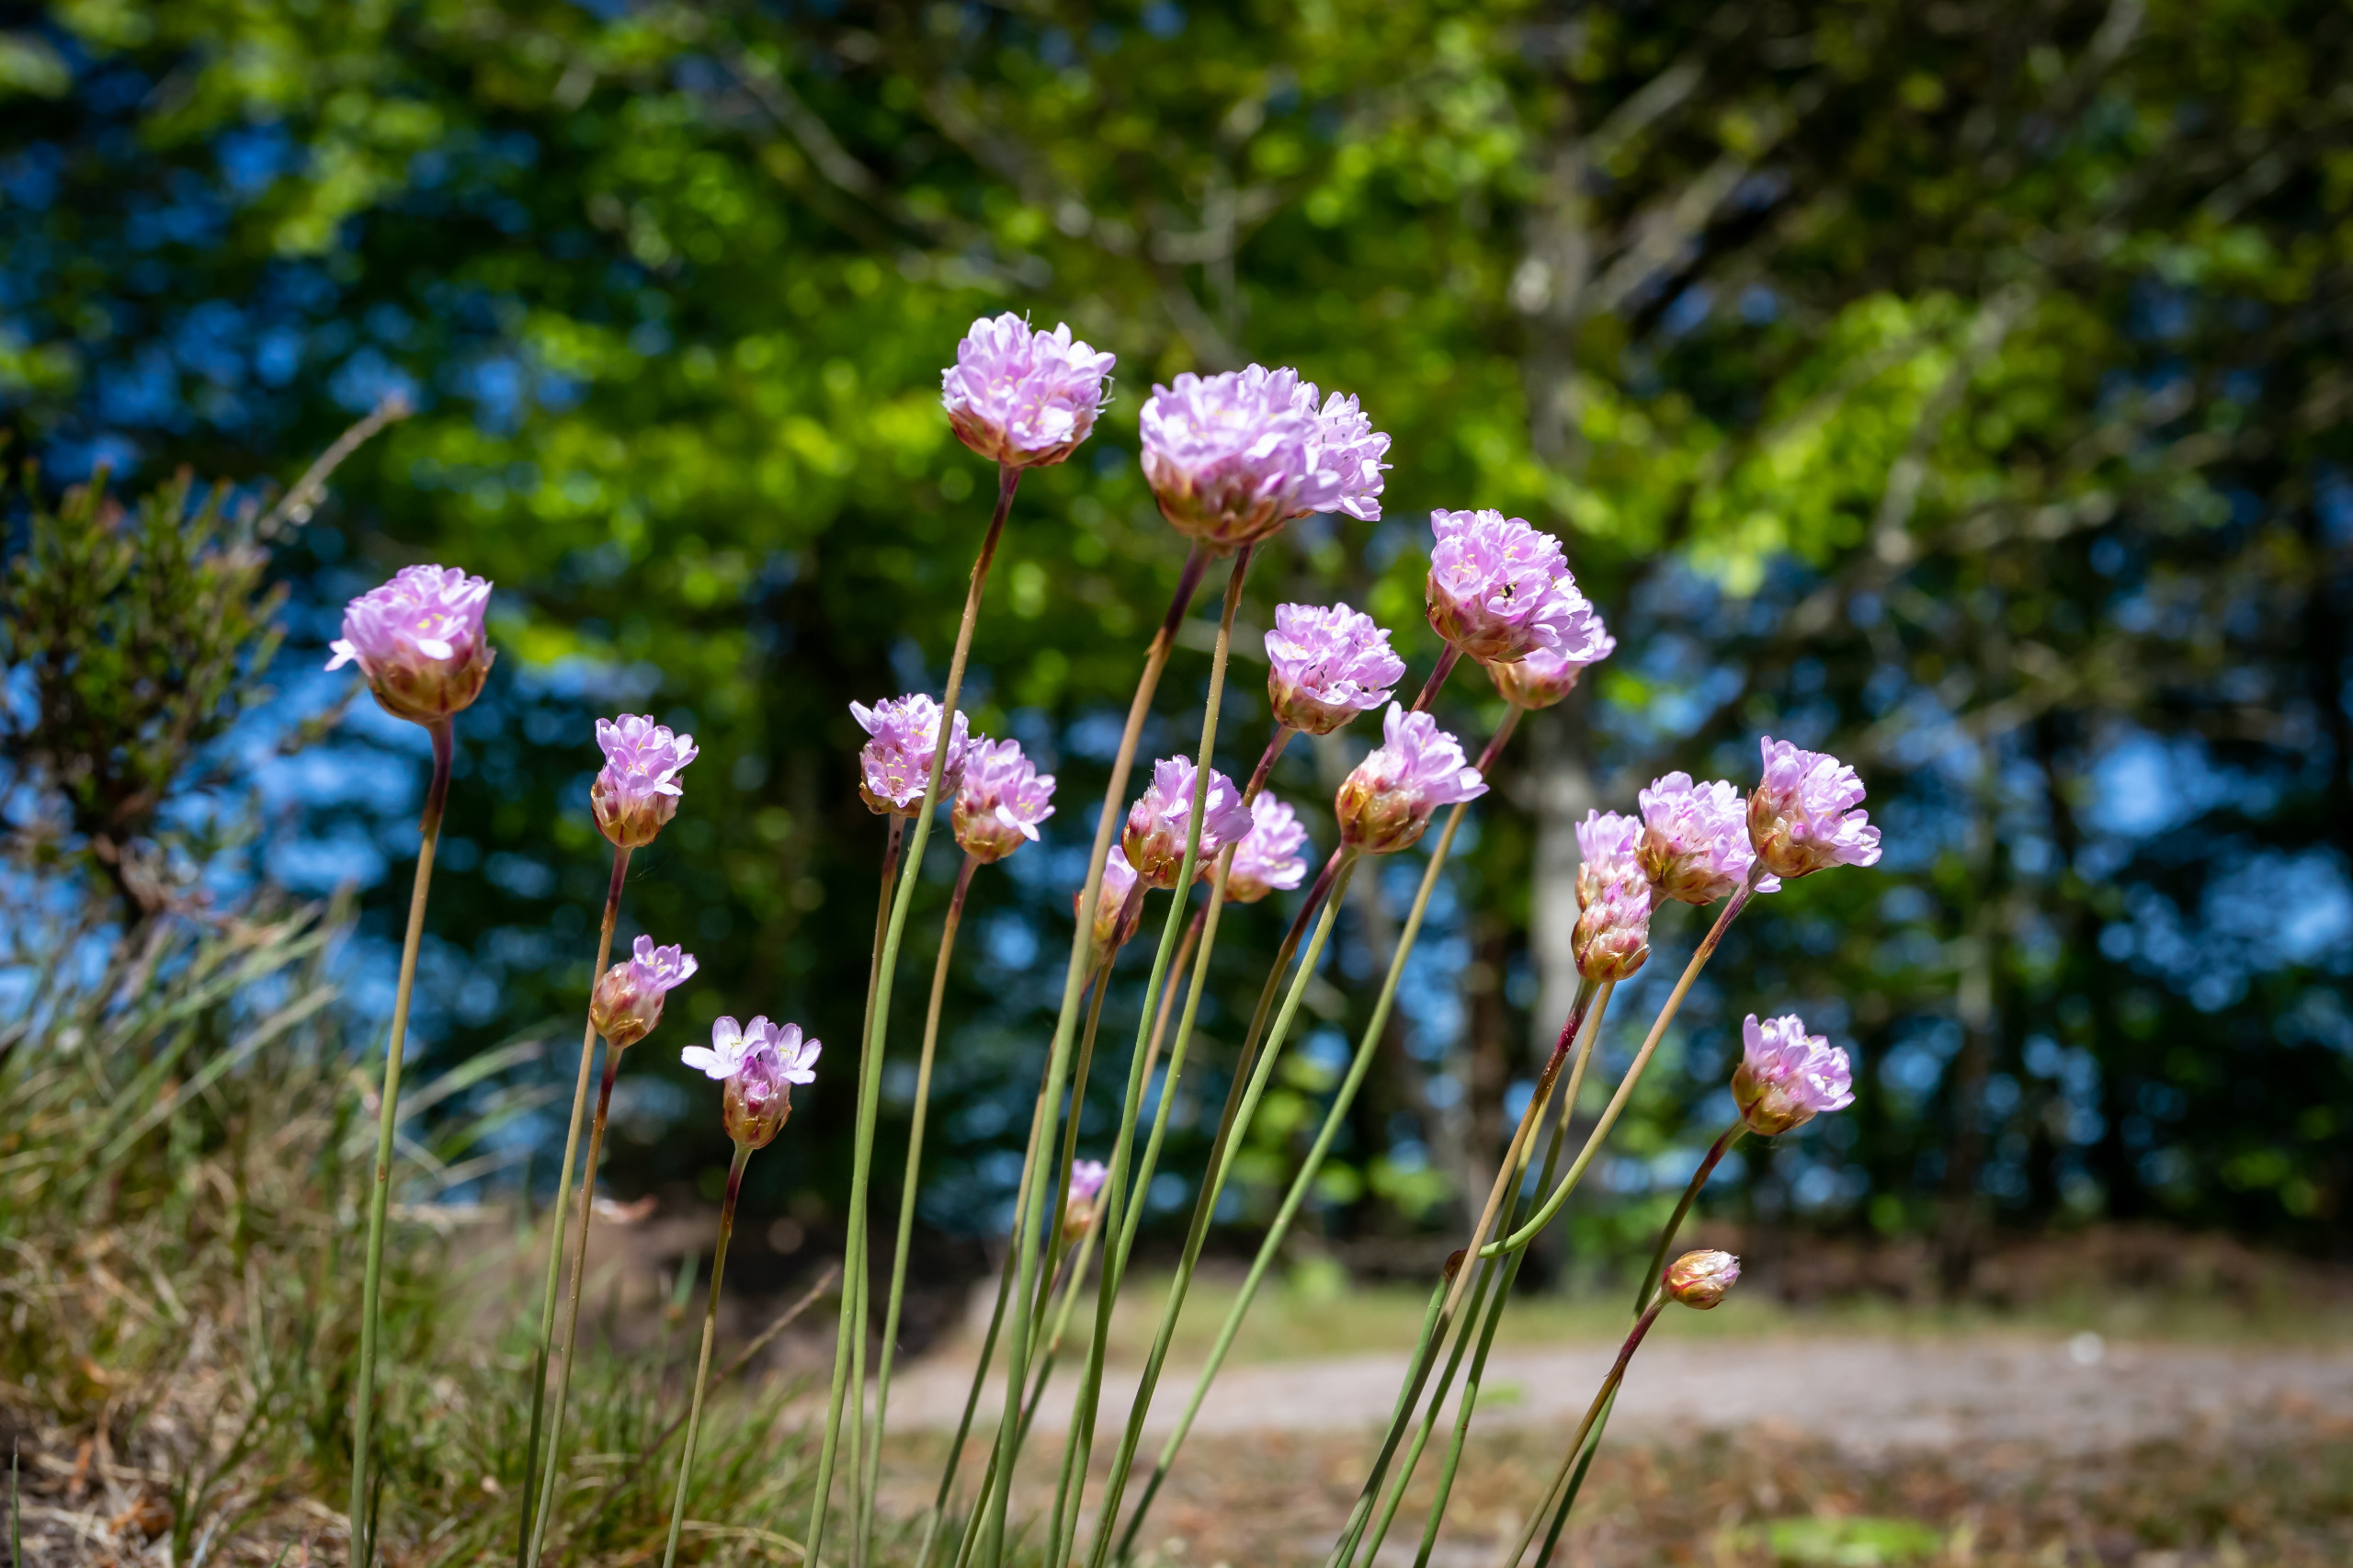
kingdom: Plantae
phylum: Tracheophyta
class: Magnoliopsida
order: Caryophyllales
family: Plumbaginaceae
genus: Armeria
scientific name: Armeria maritima
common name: Engelskgræs
